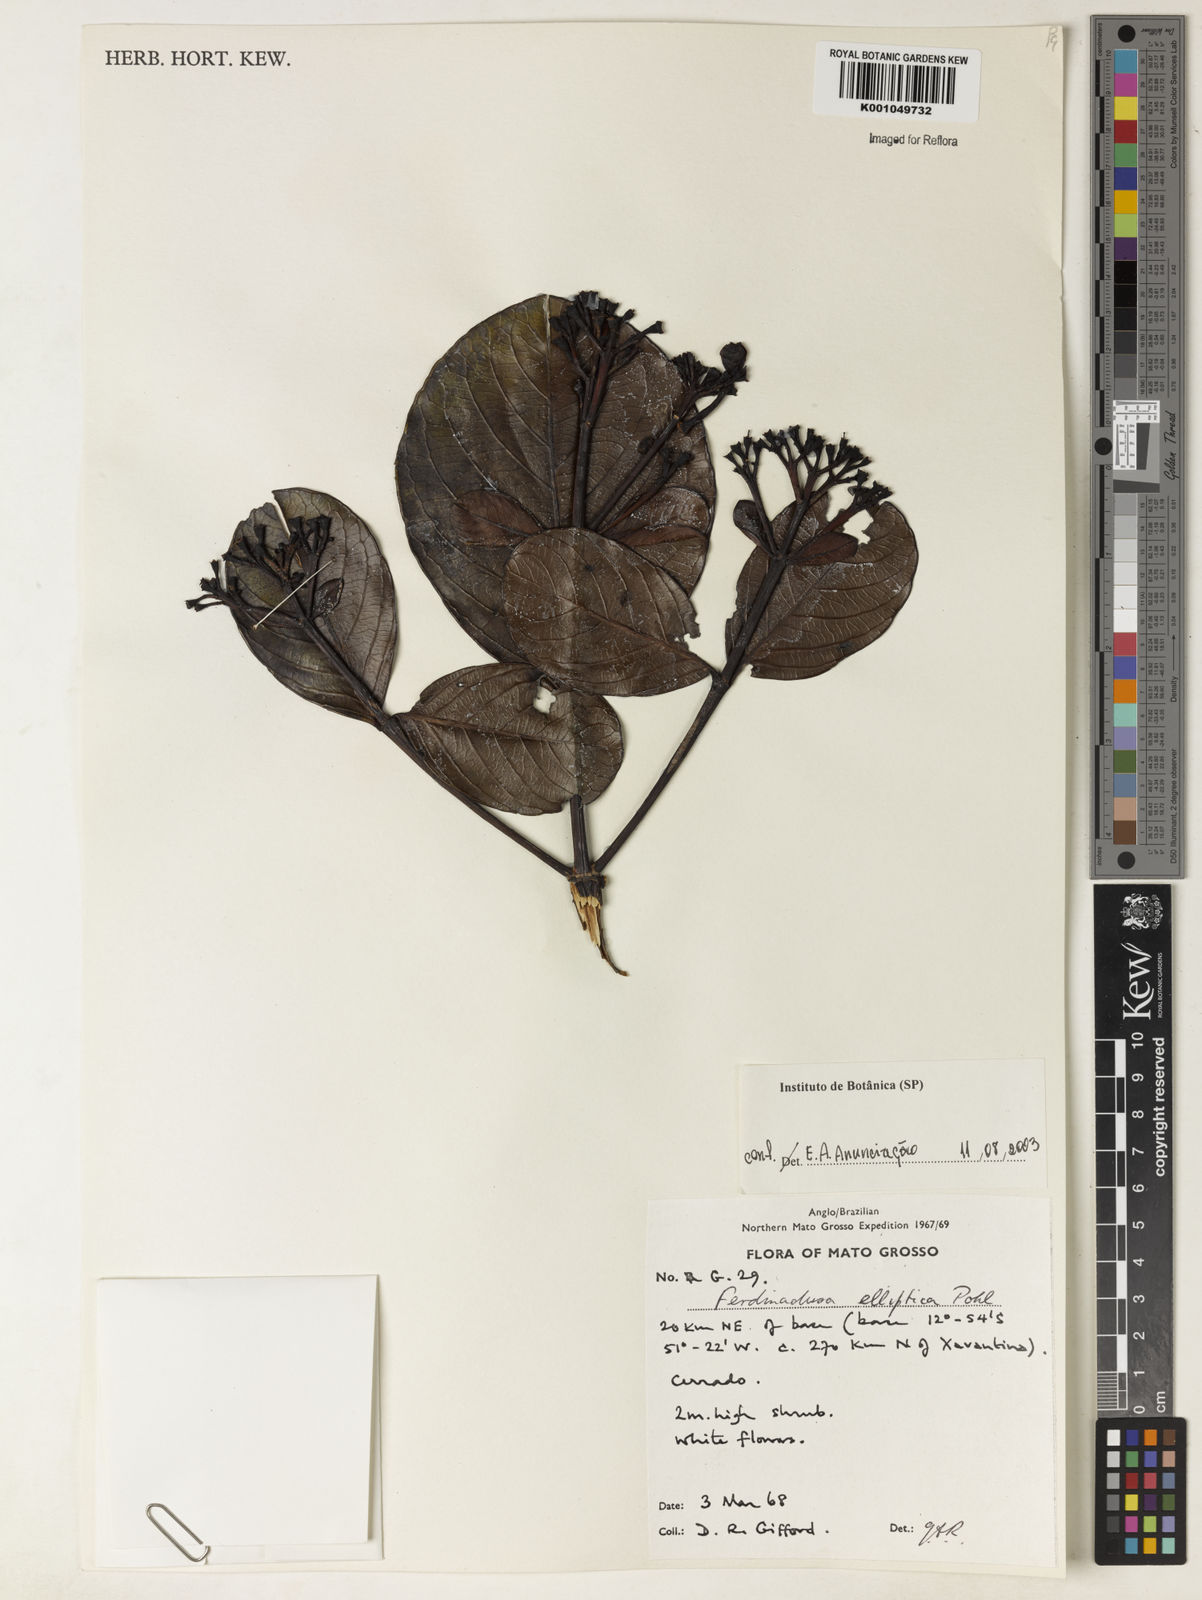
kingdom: Plantae
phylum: Tracheophyta
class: Magnoliopsida
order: Gentianales
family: Rubiaceae
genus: Ferdinandusa
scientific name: Ferdinandusa elliptica
